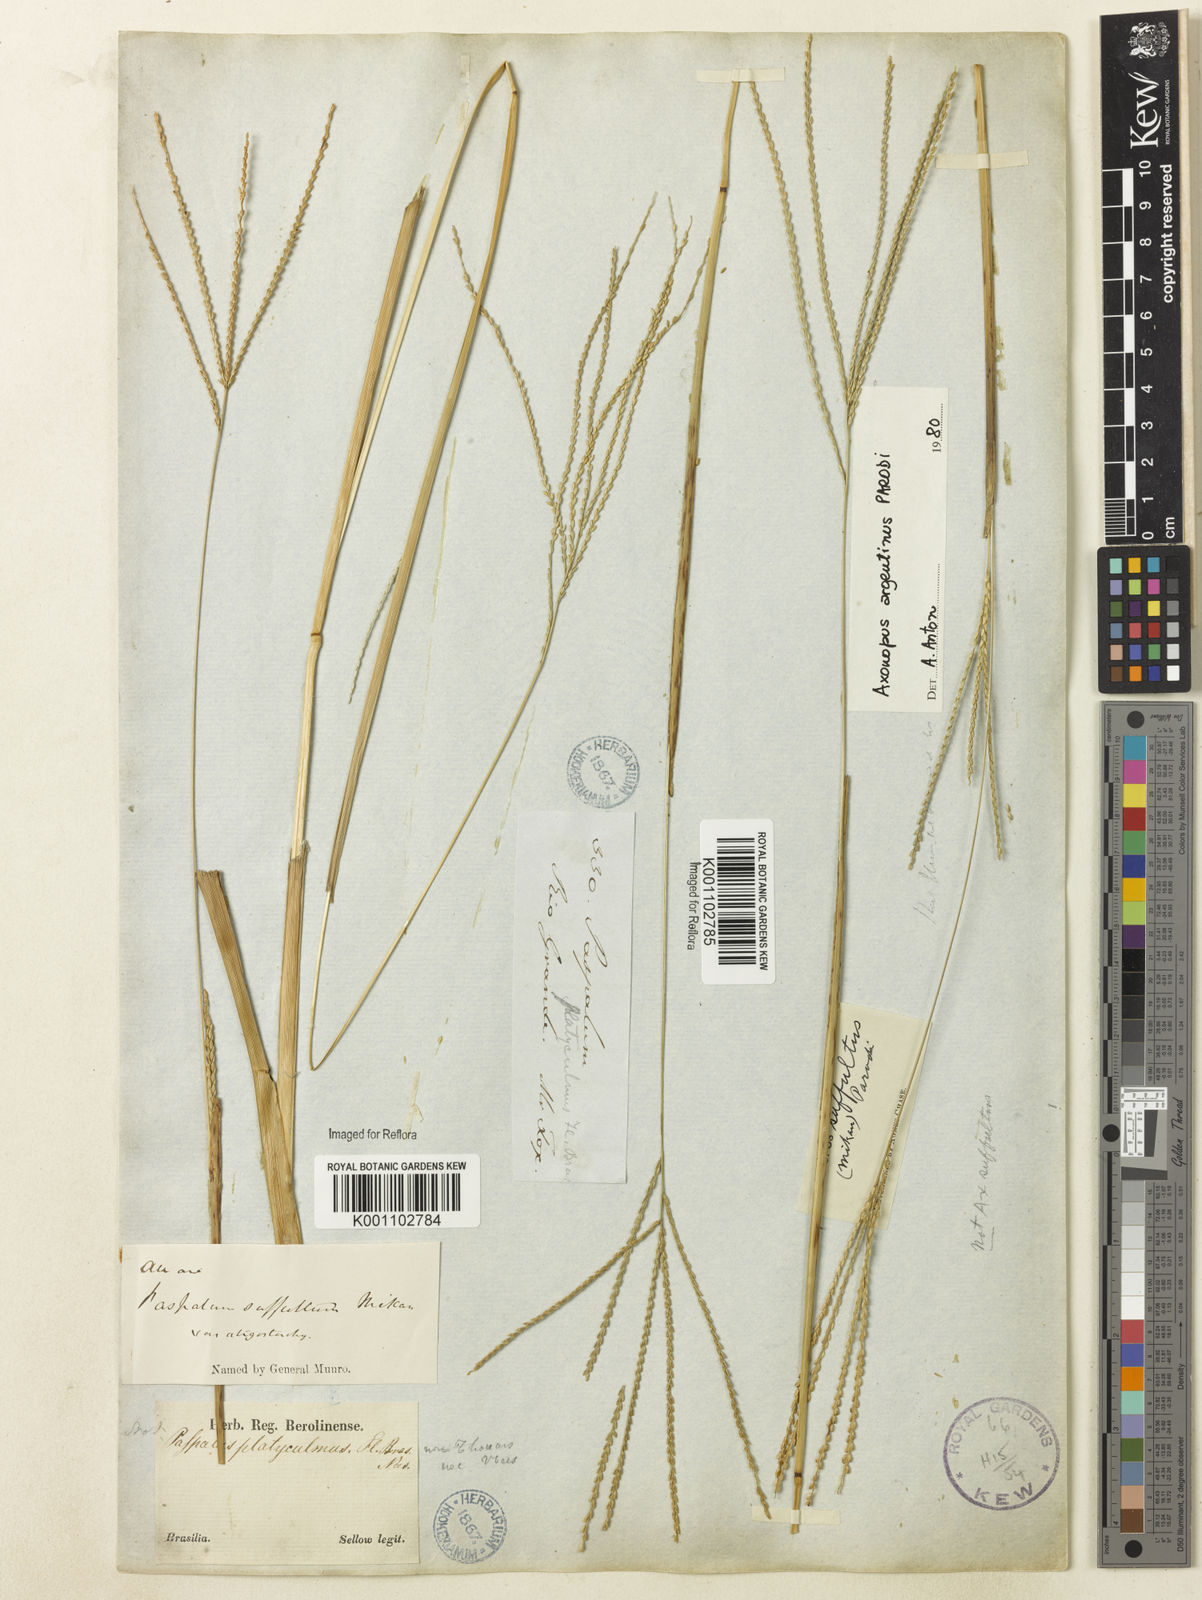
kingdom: Plantae
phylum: Tracheophyta
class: Liliopsida
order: Poales
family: Poaceae
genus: Axonopus
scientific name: Axonopus argentinus
